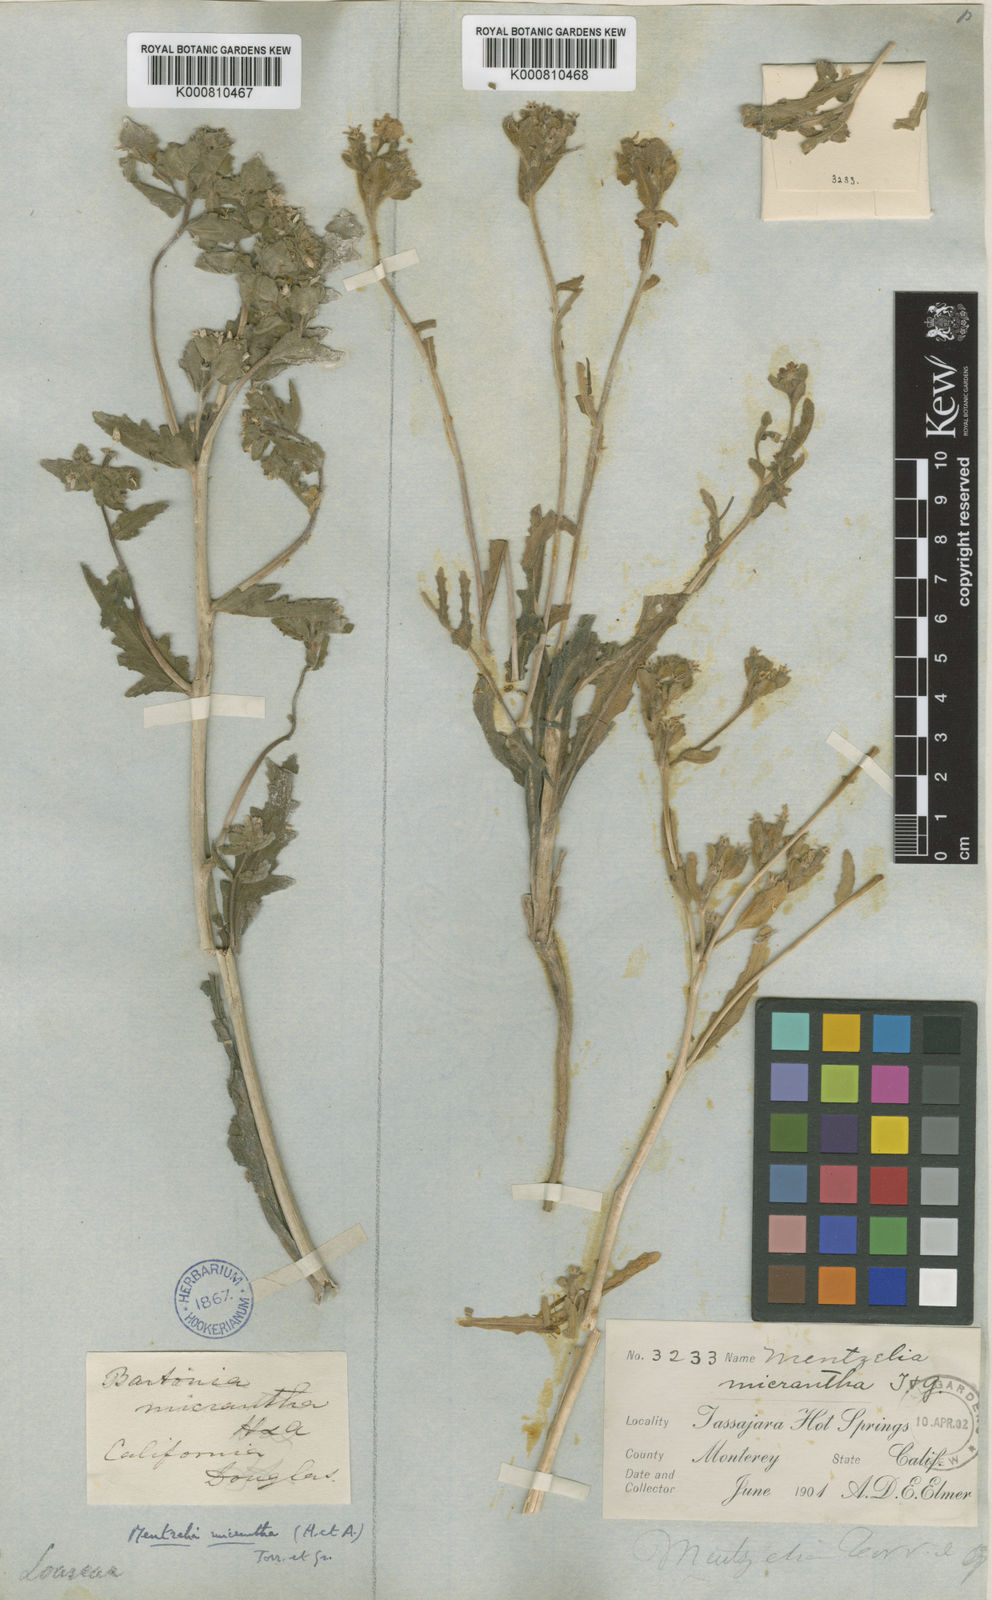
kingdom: Plantae
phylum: Tracheophyta
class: Magnoliopsida
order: Cornales
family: Loasaceae
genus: Mentzelia
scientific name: Mentzelia micrantha
